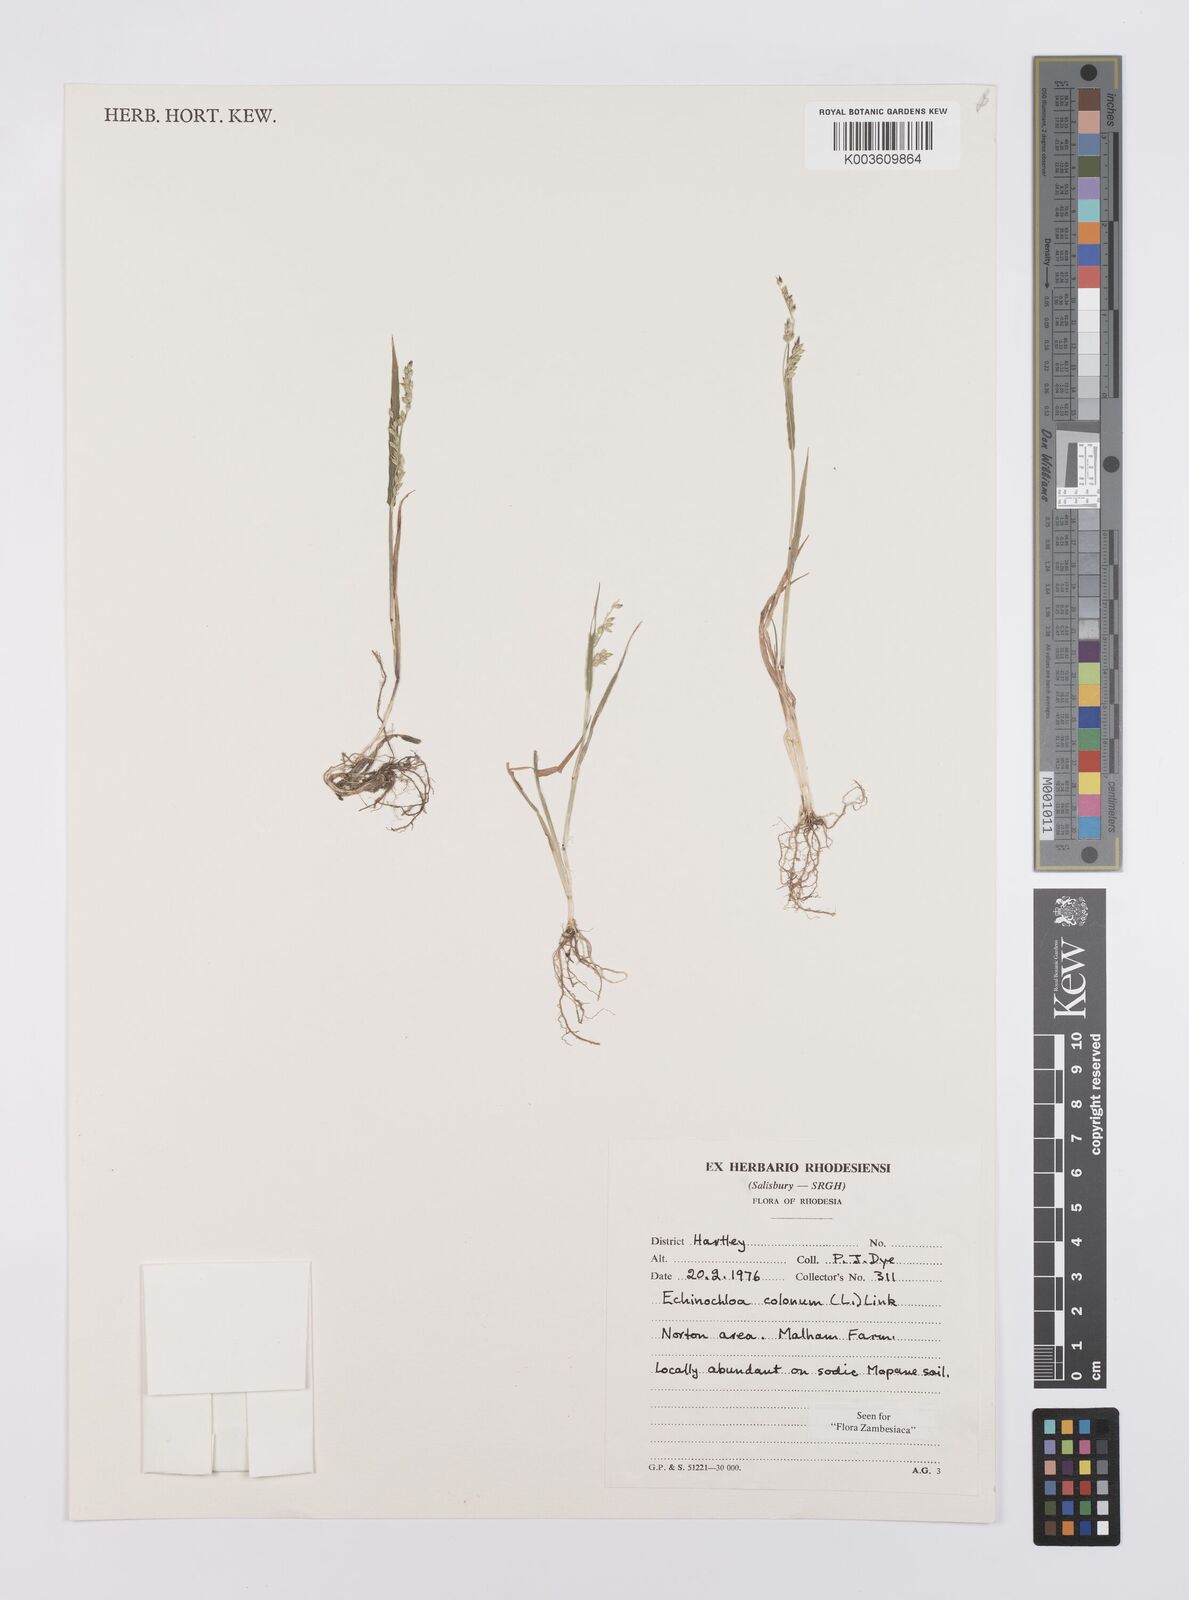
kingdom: Plantae
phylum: Tracheophyta
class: Liliopsida
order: Poales
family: Poaceae
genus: Echinochloa
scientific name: Echinochloa colonum
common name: Jungle rice
